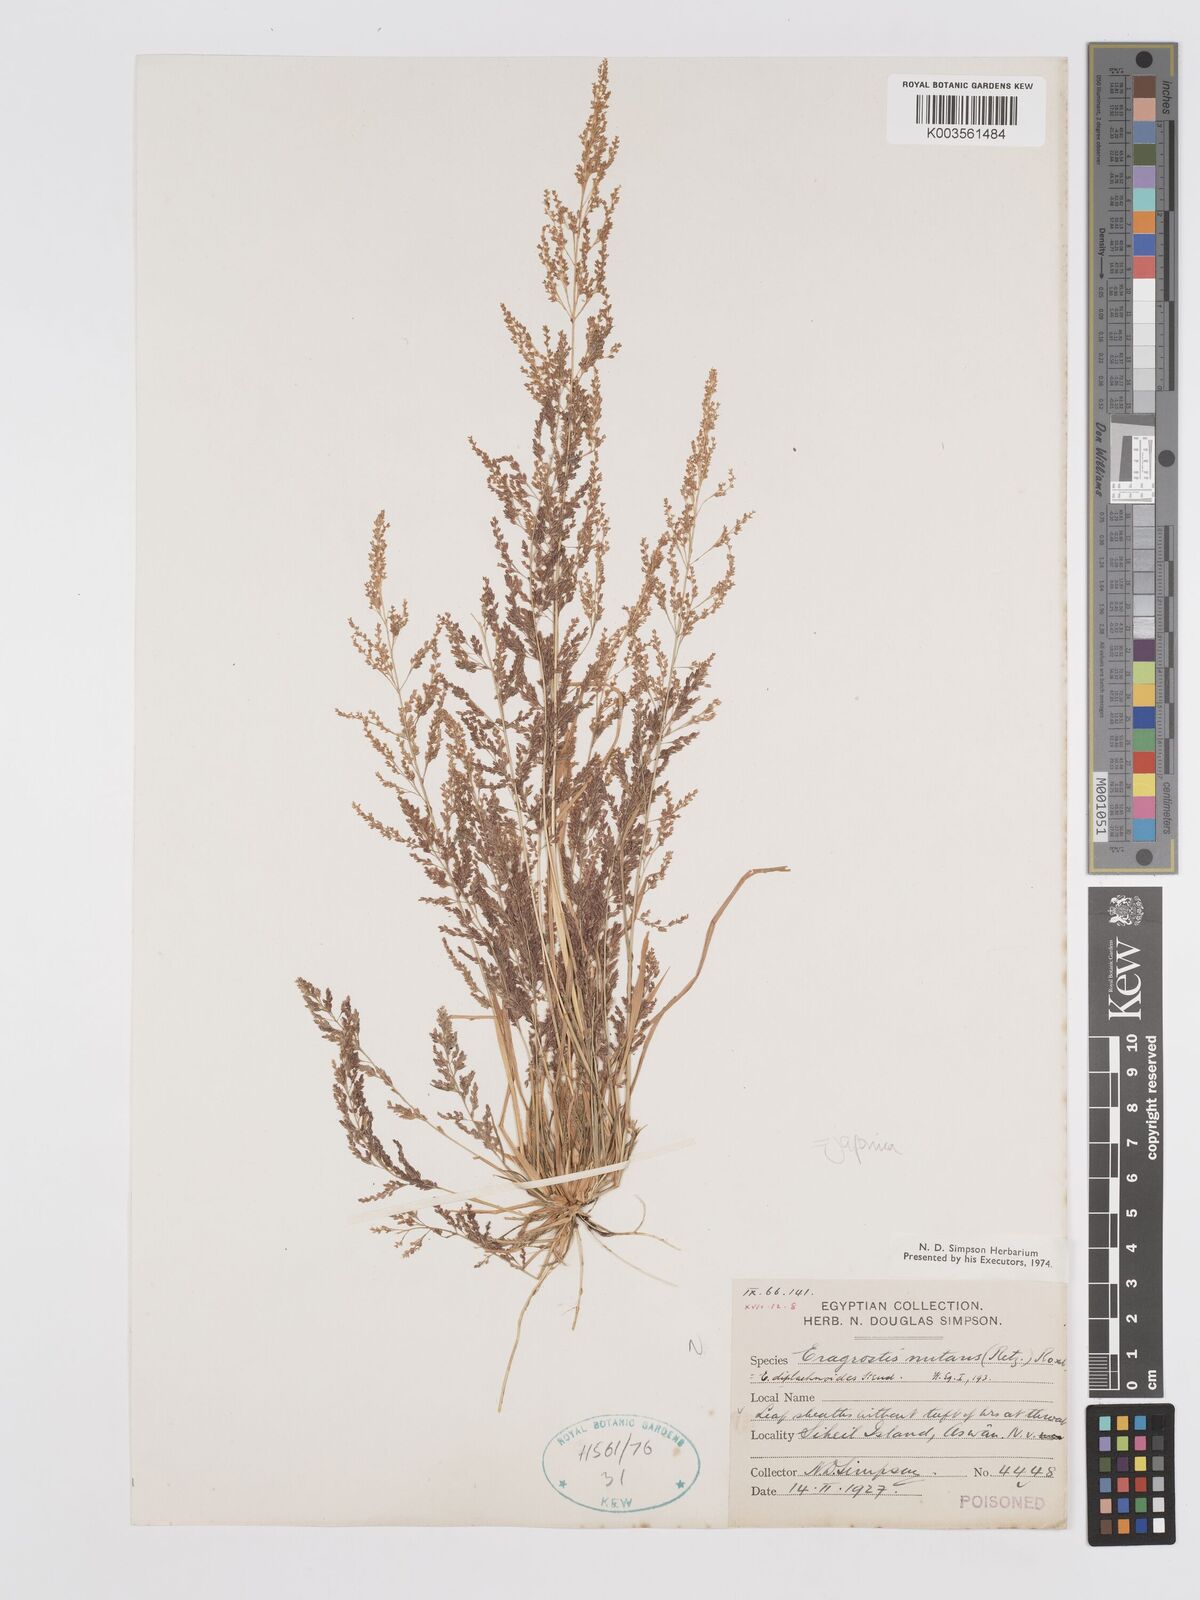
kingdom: Plantae
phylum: Tracheophyta
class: Liliopsida
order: Poales
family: Poaceae
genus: Eragrostis
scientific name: Eragrostis japonica
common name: Pond lovegrass
